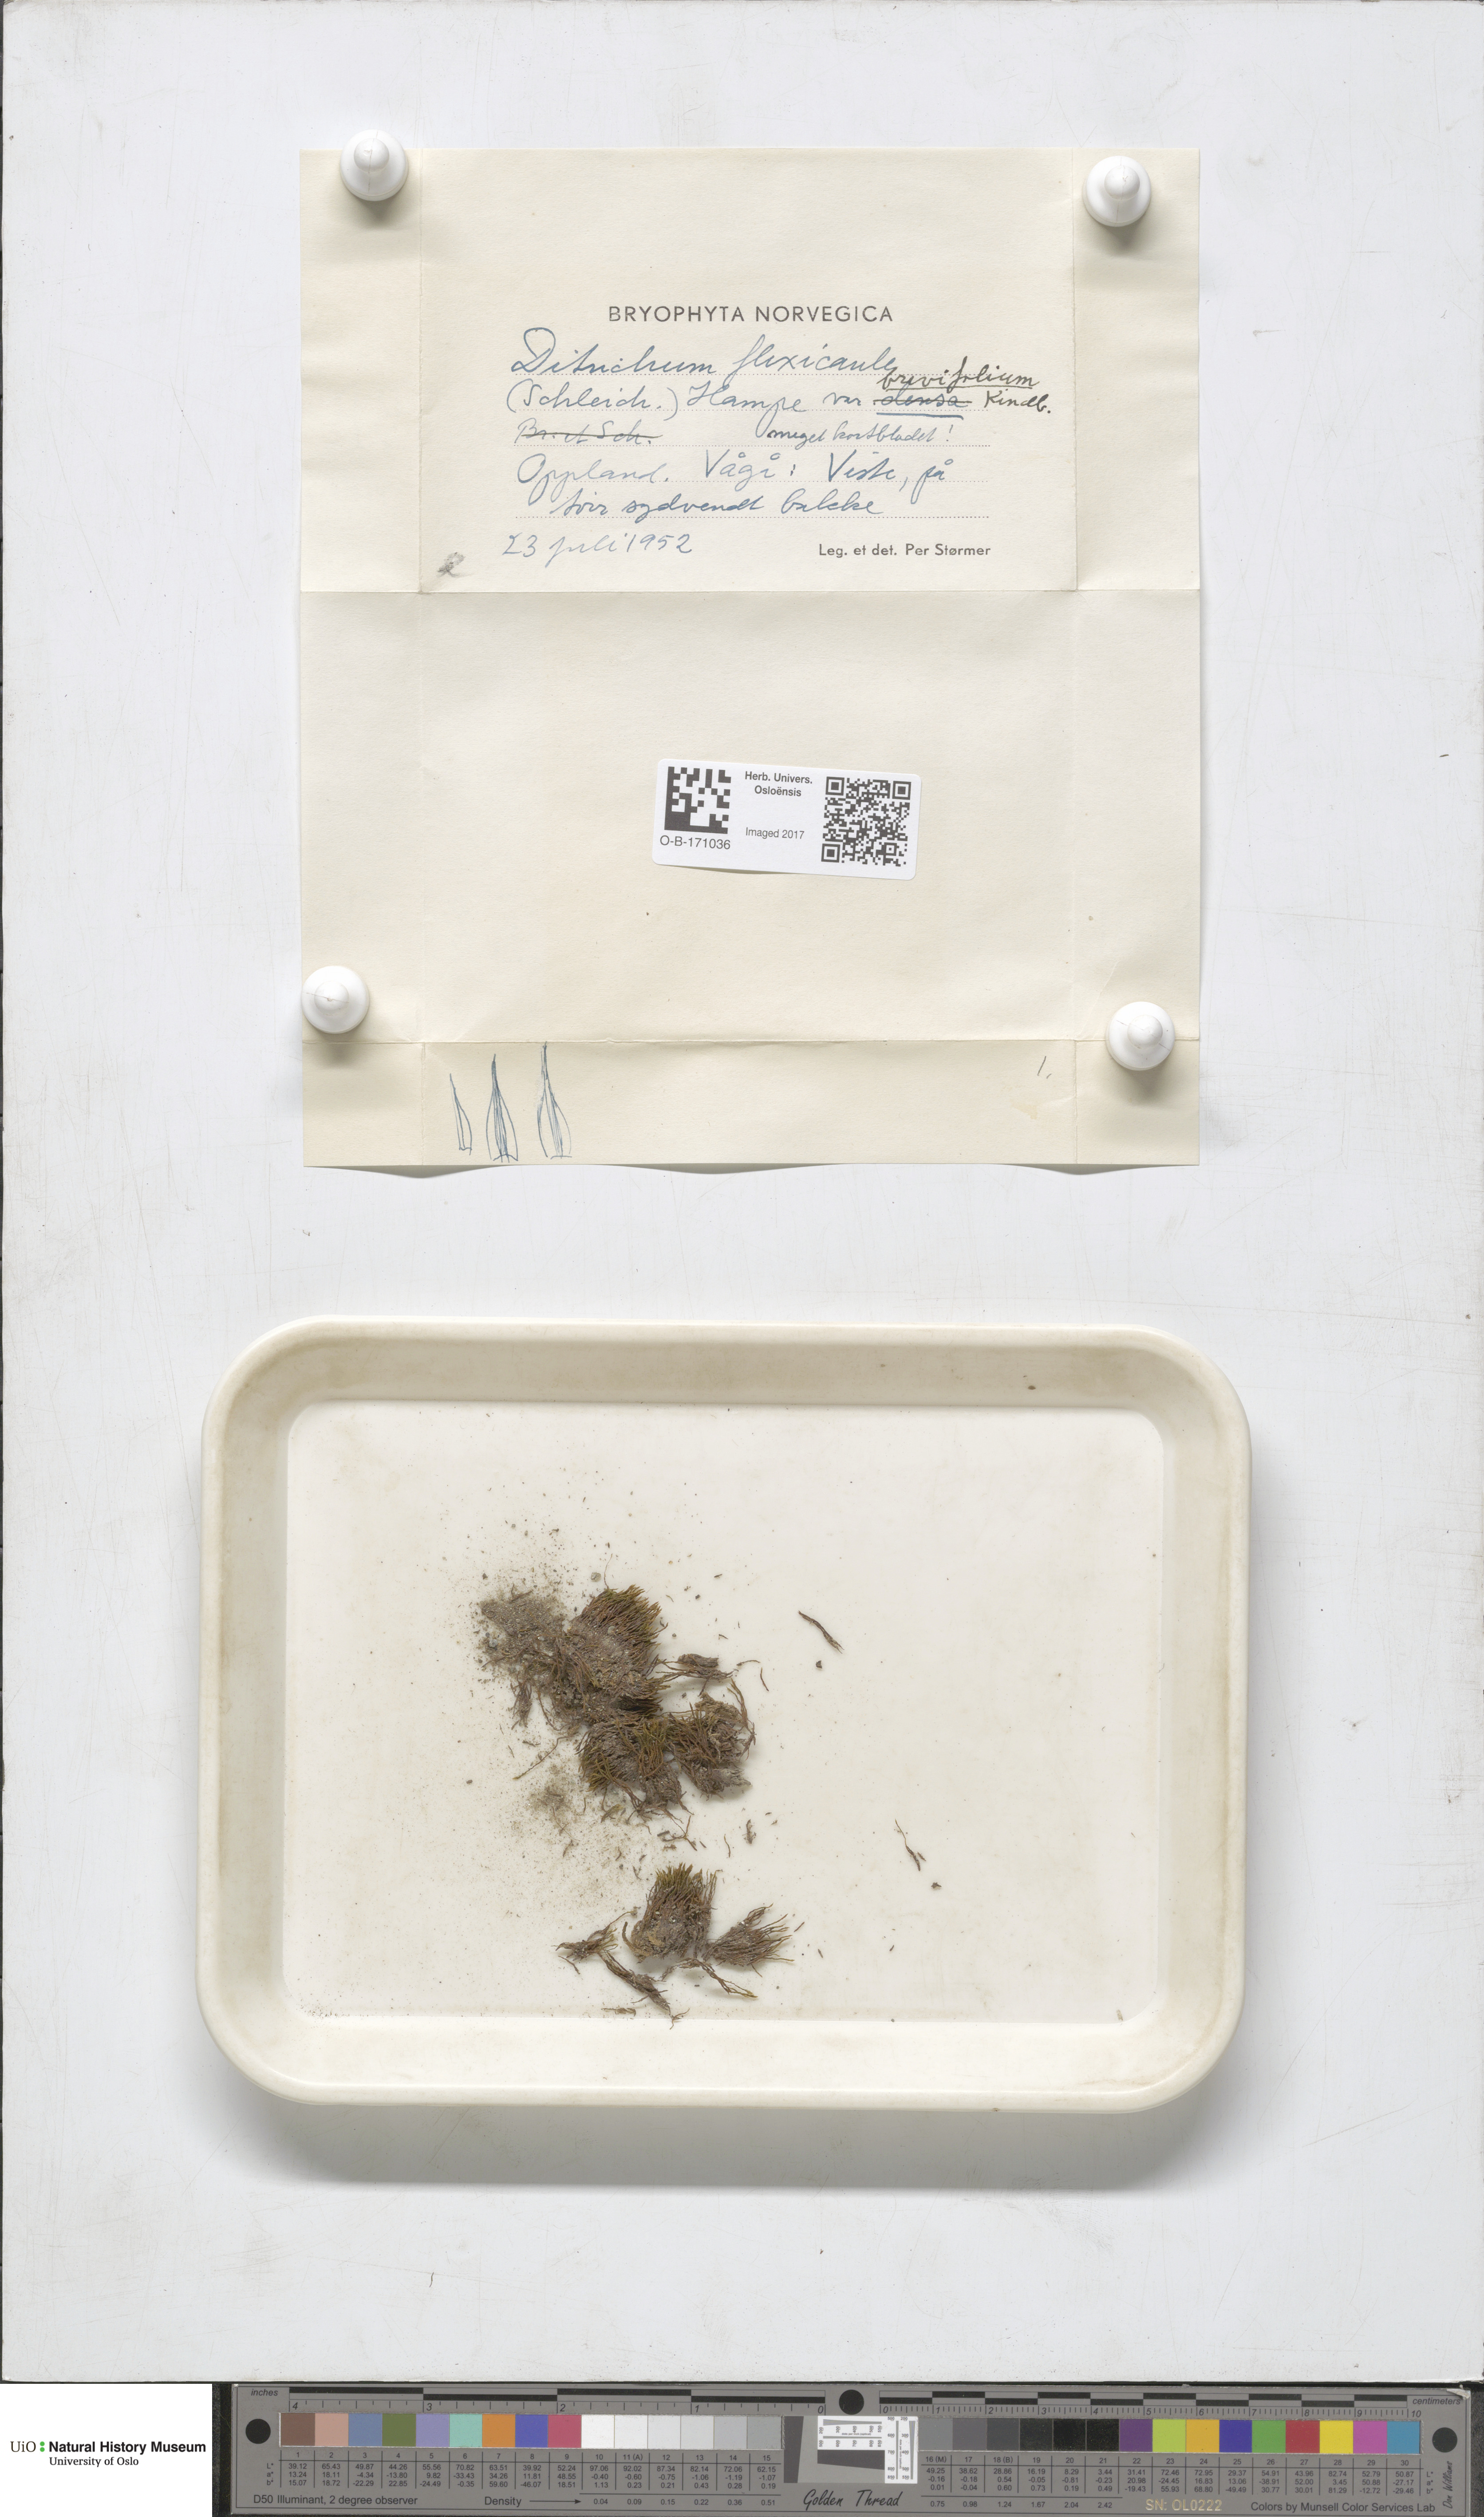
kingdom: Plantae
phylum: Bryophyta
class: Bryopsida
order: Scouleriales
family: Flexitrichaceae
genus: Flexitrichum
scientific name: Flexitrichum flexicaule
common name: Bendy ditrichum
